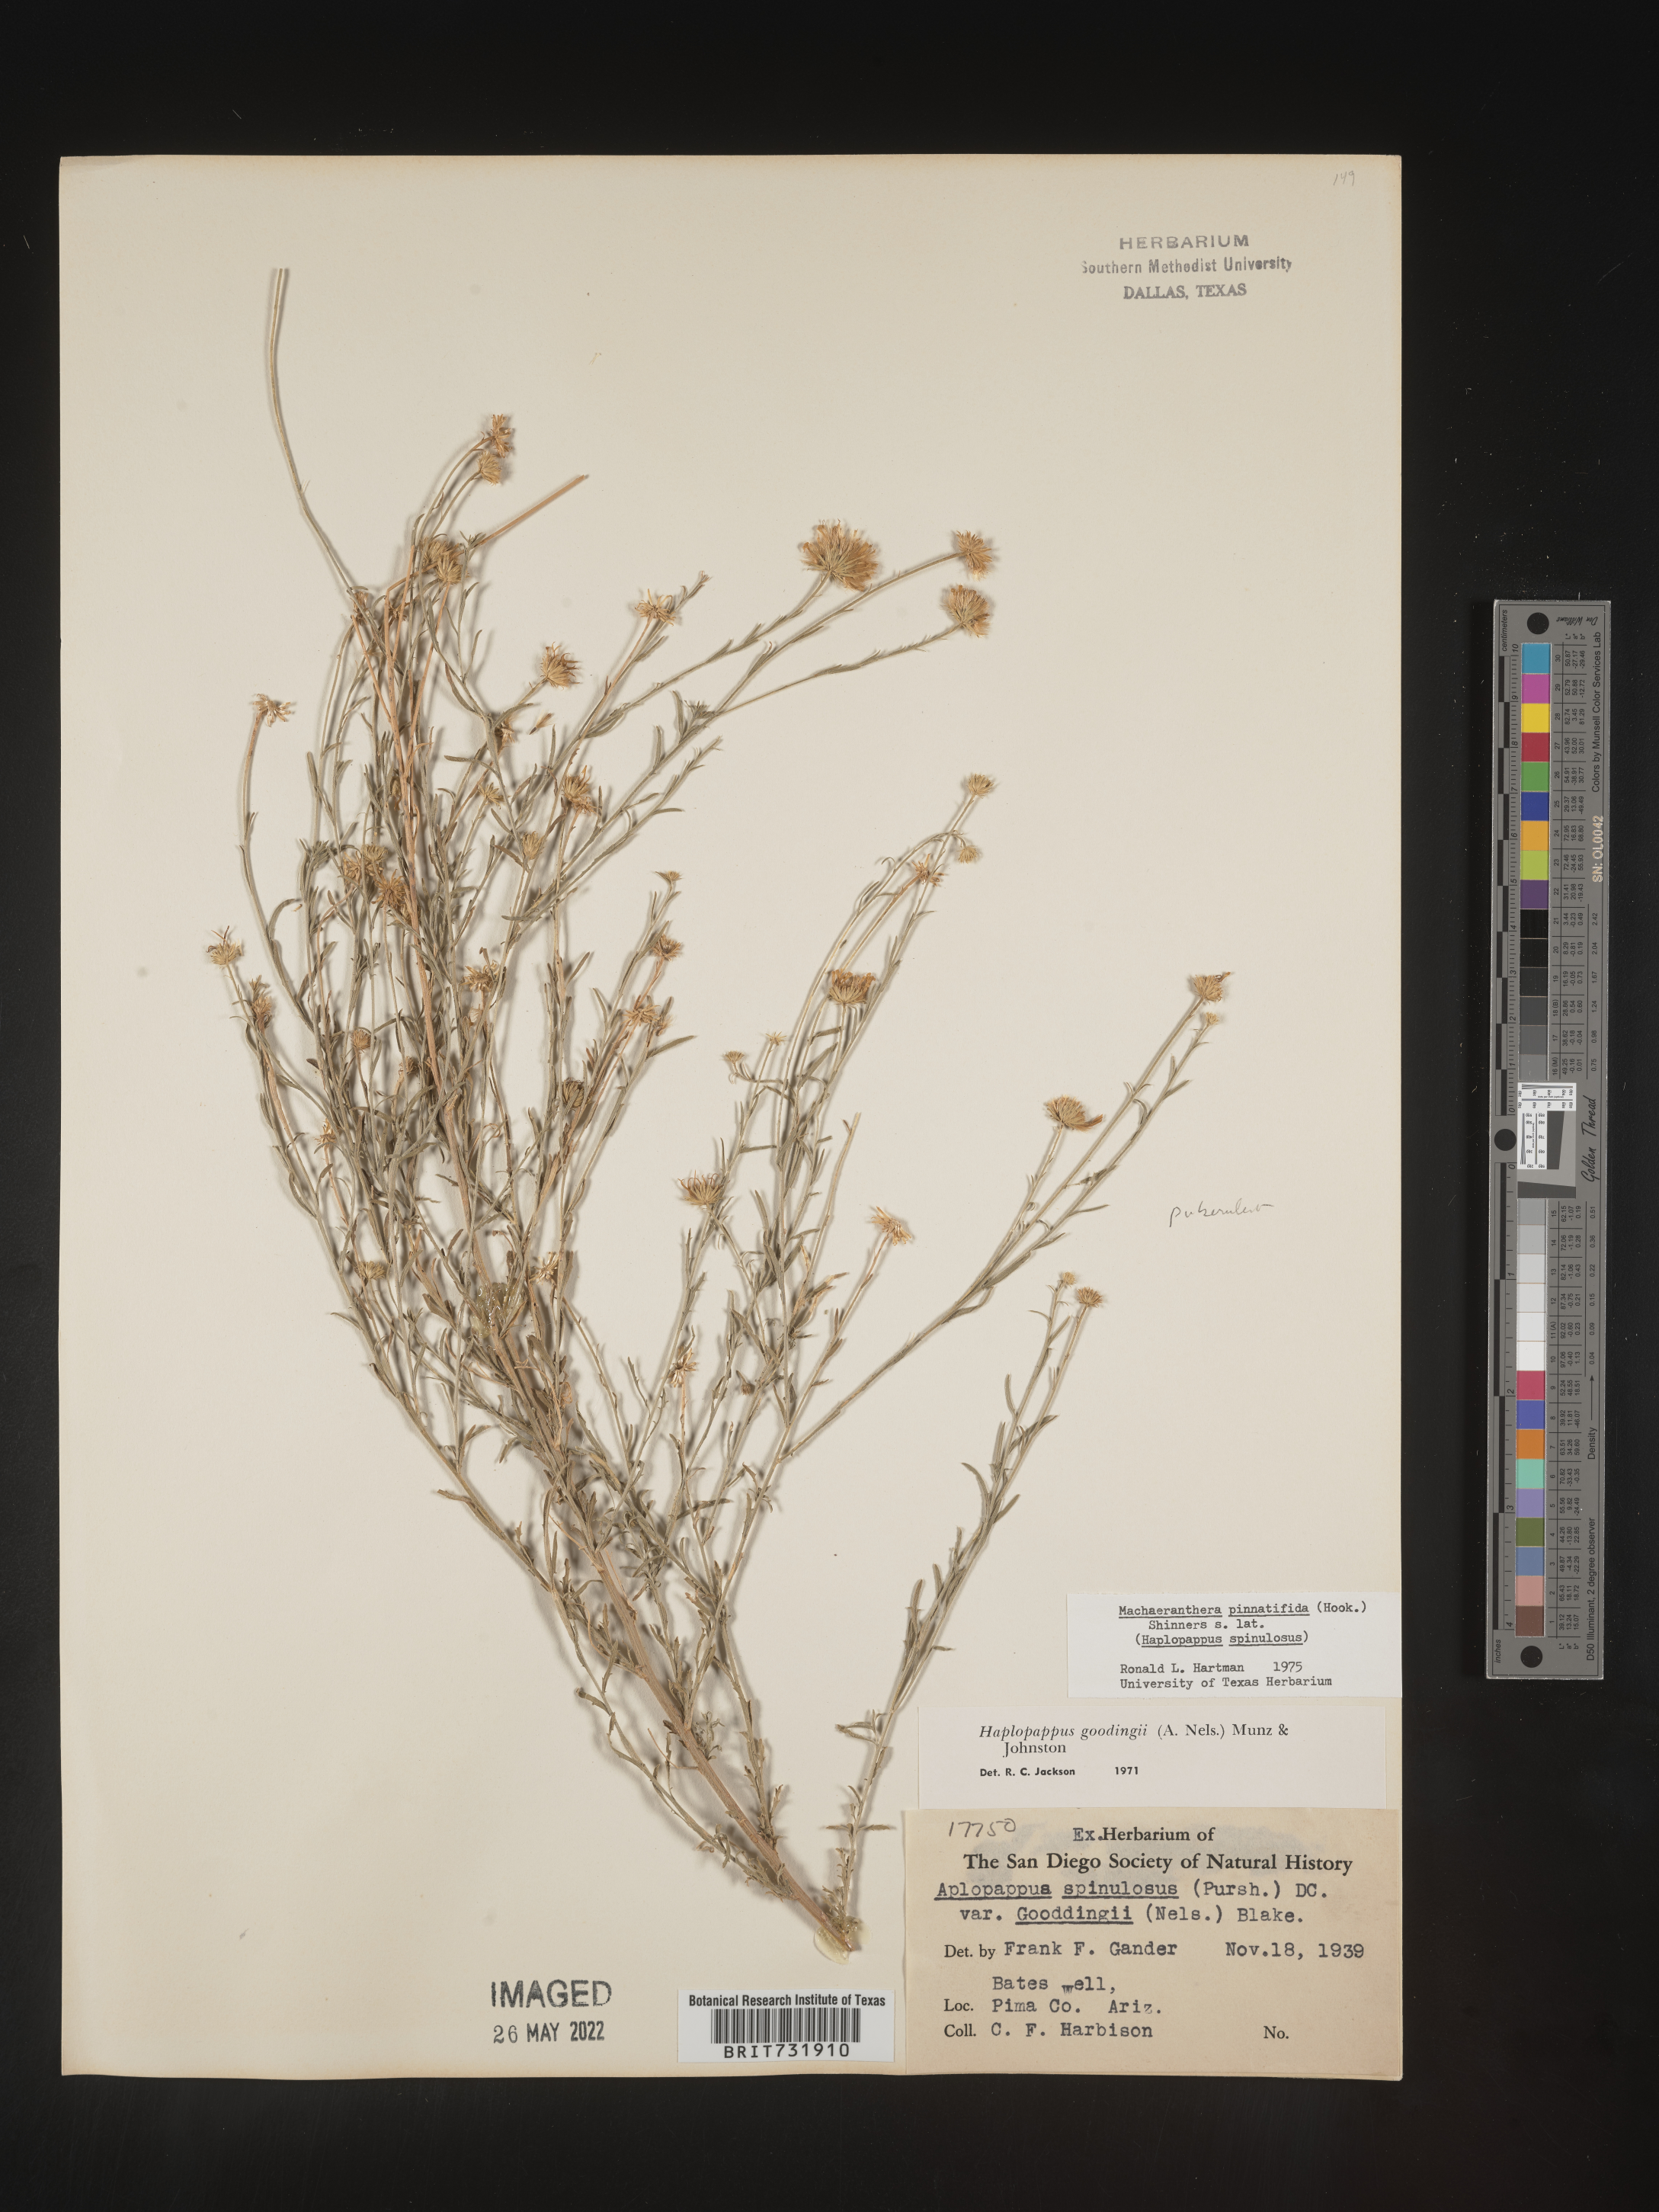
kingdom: Plantae
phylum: Tracheophyta
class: Magnoliopsida
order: Asterales
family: Asteraceae
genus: Xanthisma
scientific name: Xanthisma spinulosum
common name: Spiny goldenweed
